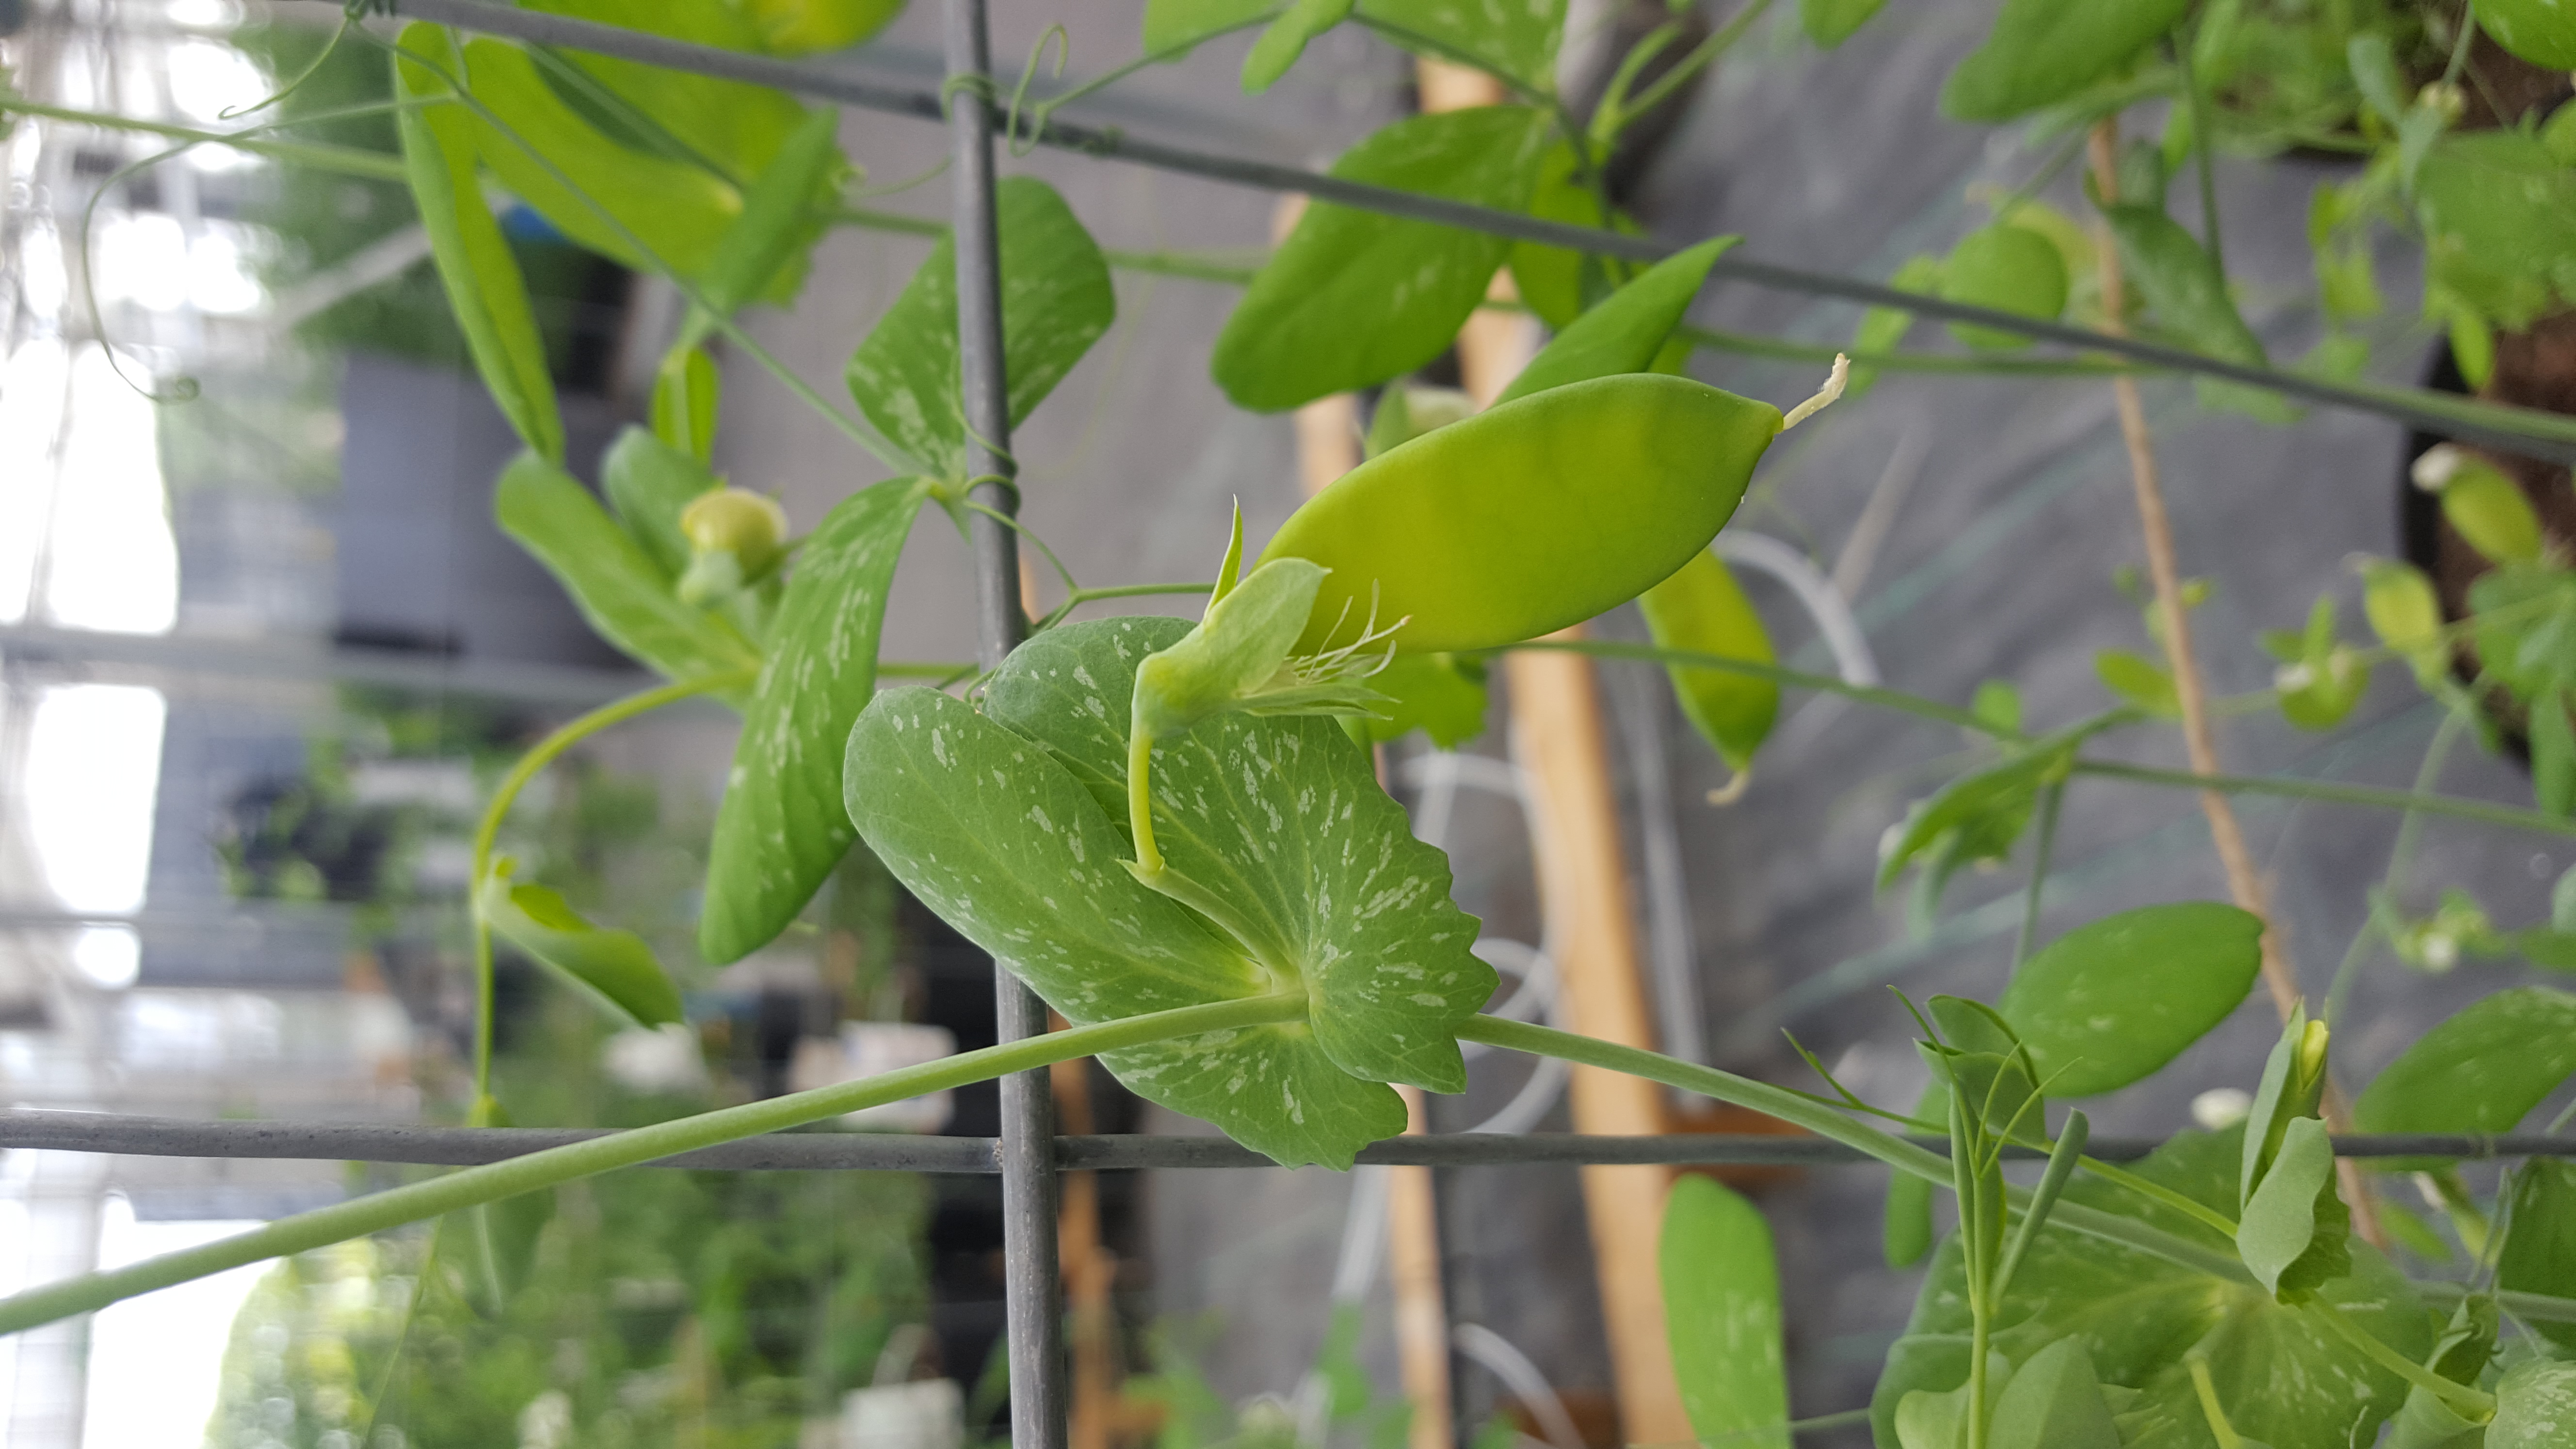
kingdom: Plantae
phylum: Tracheophyta
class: Magnoliopsida
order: Fabales
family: Fabaceae
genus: Lathyrus
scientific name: Lathyrus oleraceus
